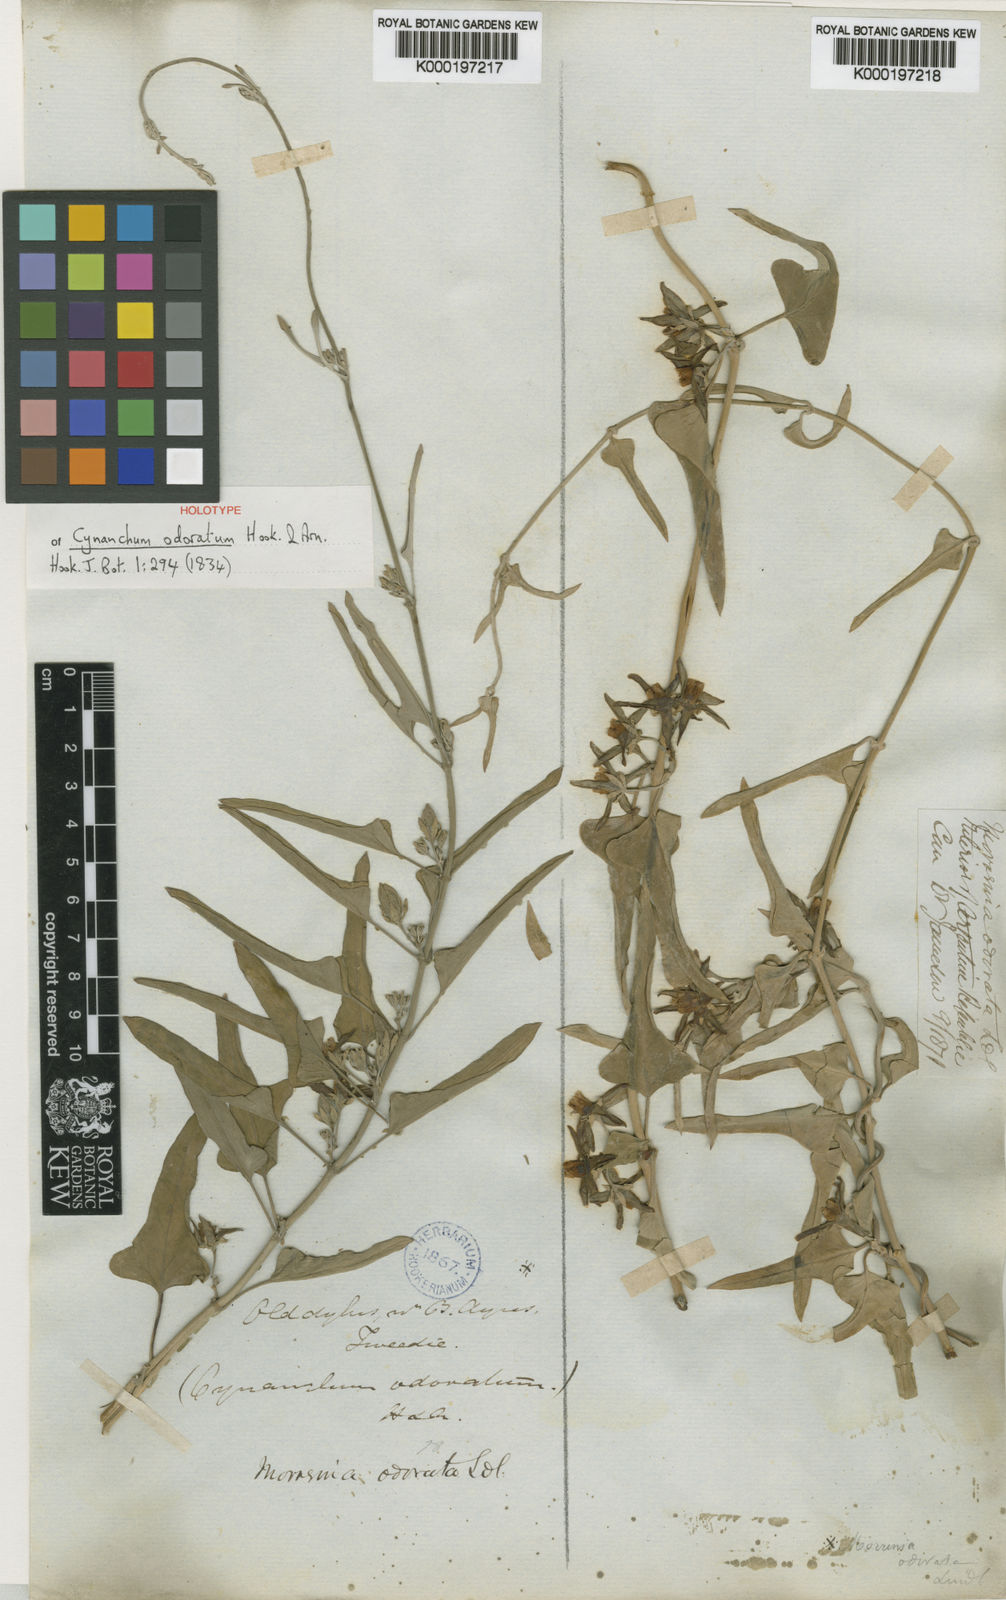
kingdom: Plantae
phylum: Tracheophyta
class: Magnoliopsida
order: Gentianales
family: Apocynaceae
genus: Araujia
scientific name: Araujia odorata
